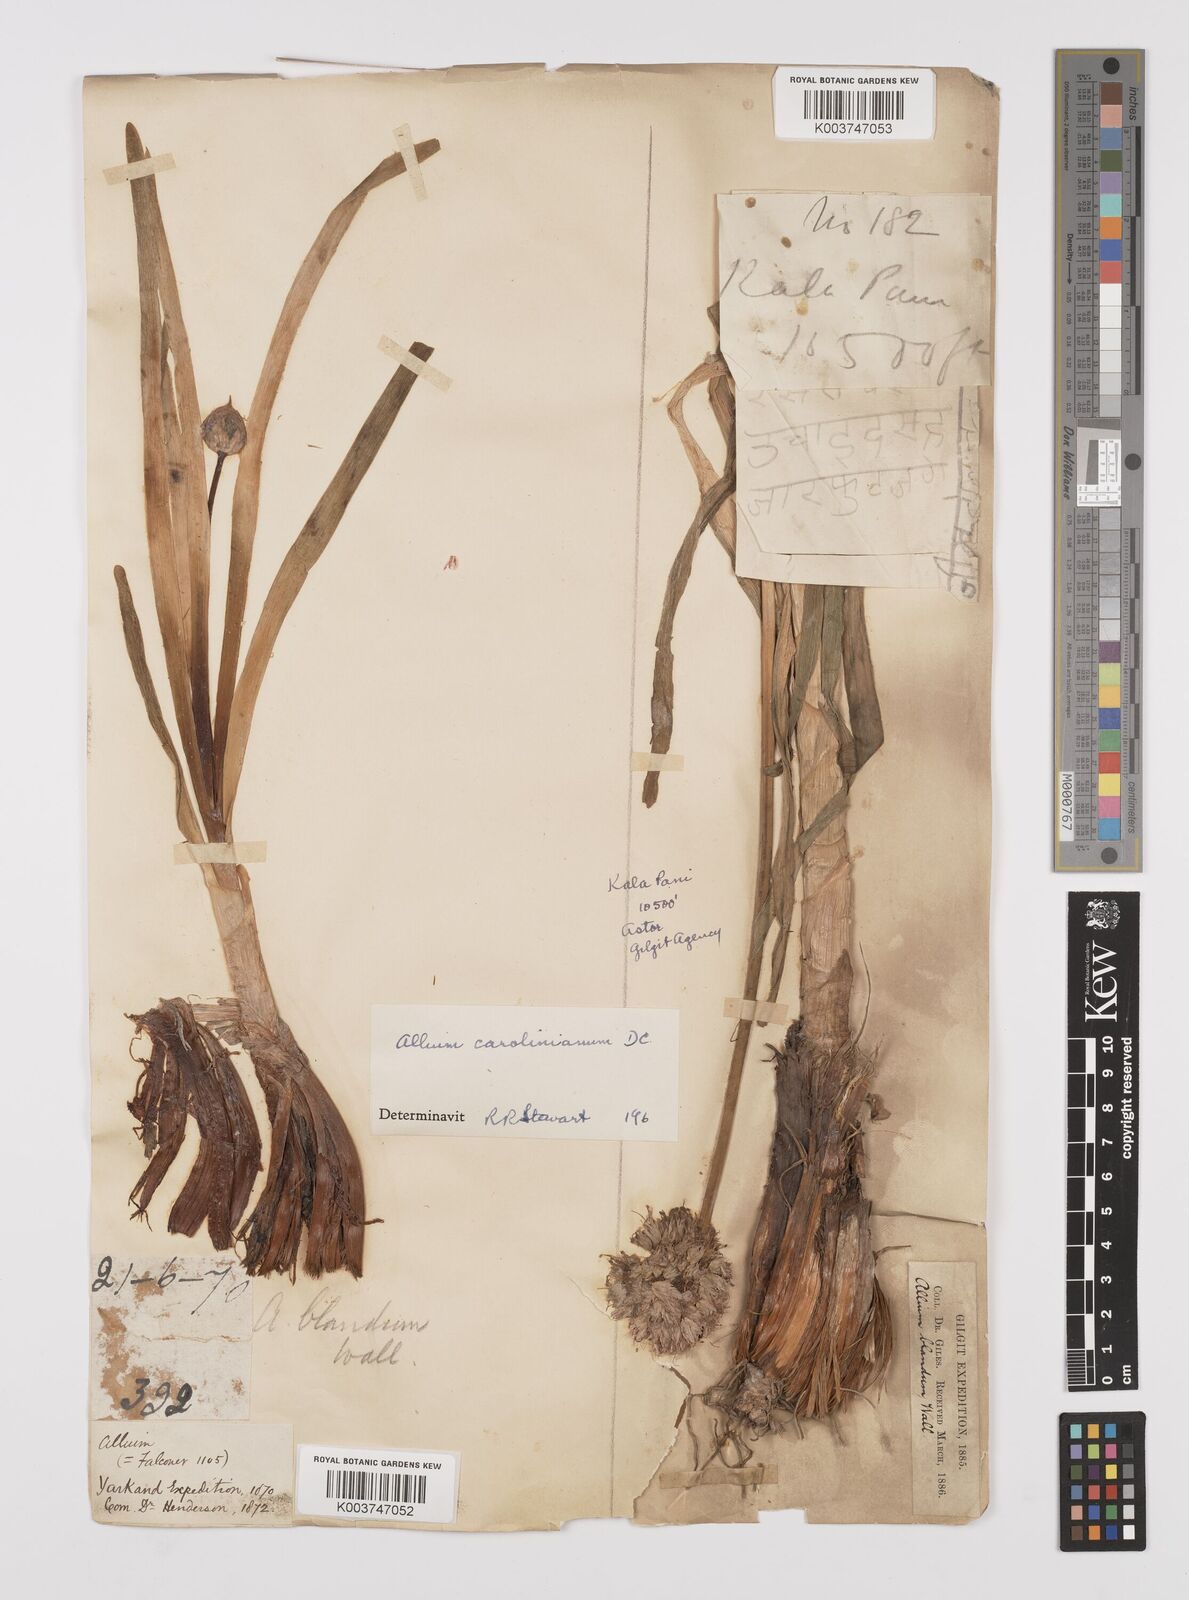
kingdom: Plantae
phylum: Tracheophyta
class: Liliopsida
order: Asparagales
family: Amaryllidaceae
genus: Allium
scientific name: Allium blandum
